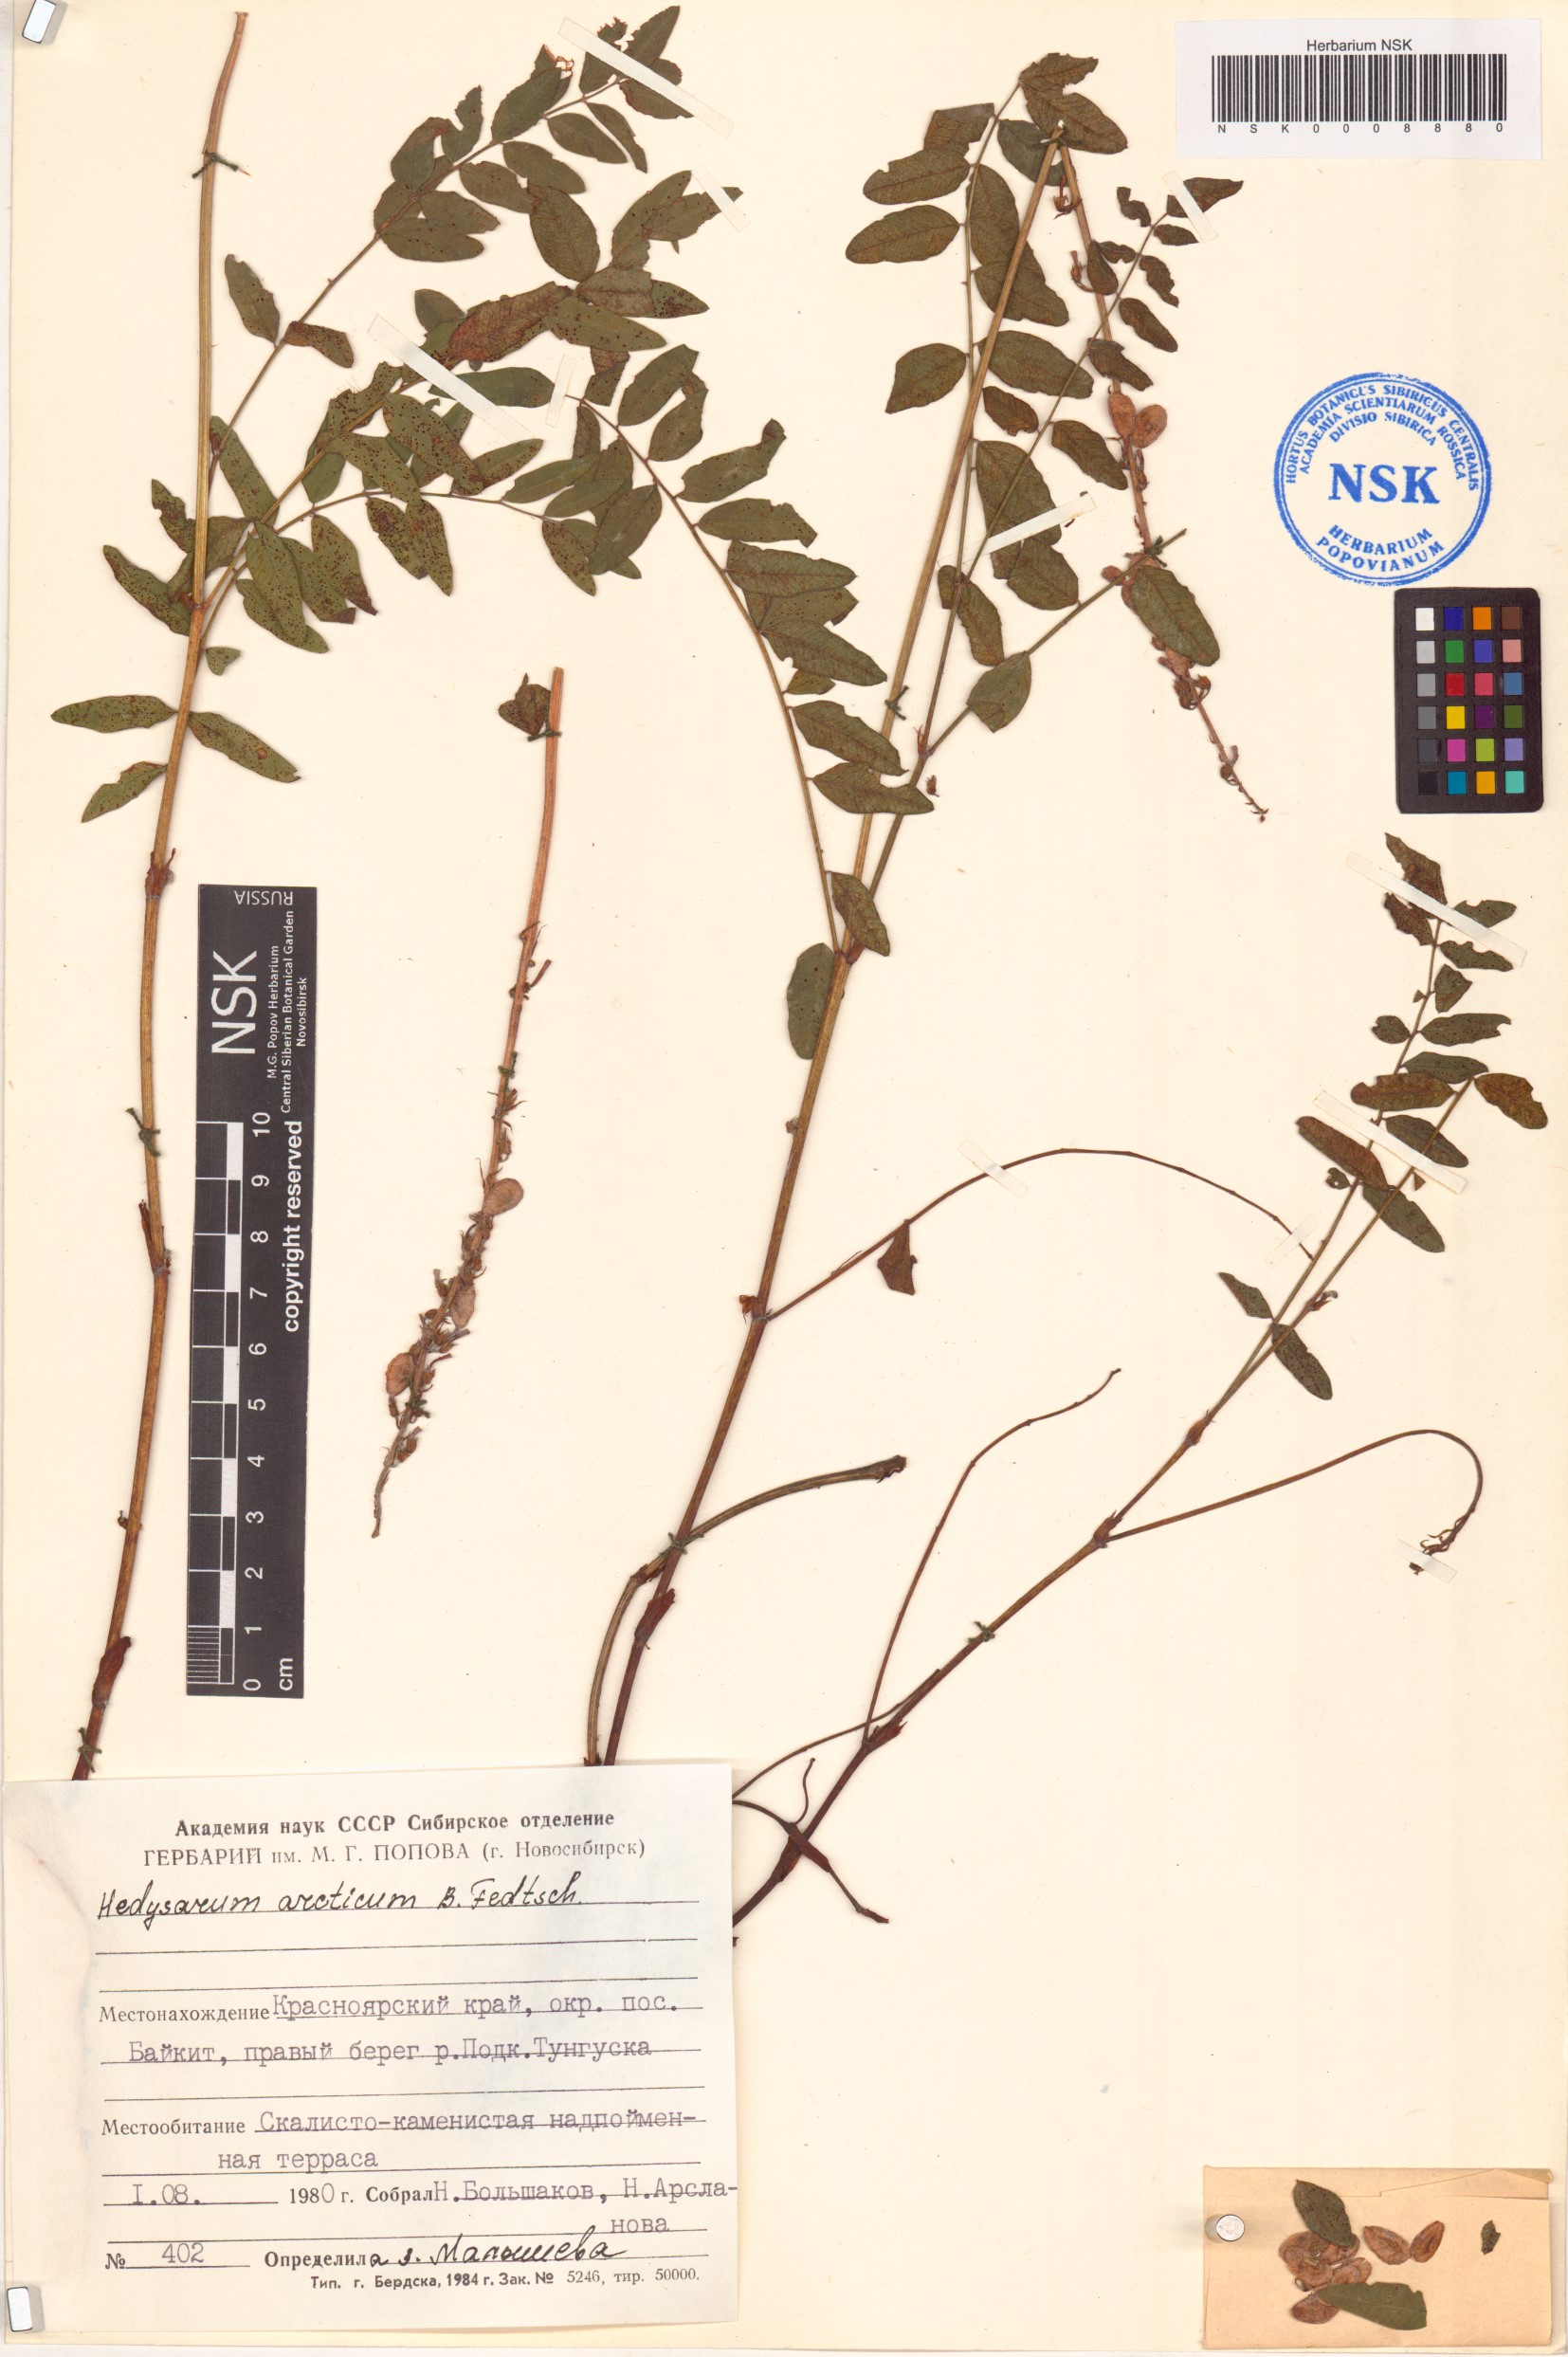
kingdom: Plantae
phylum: Tracheophyta
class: Magnoliopsida
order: Fabales
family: Fabaceae
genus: Hedysarum
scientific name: Hedysarum hedysaroides
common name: Alpine french-honeysuckle
